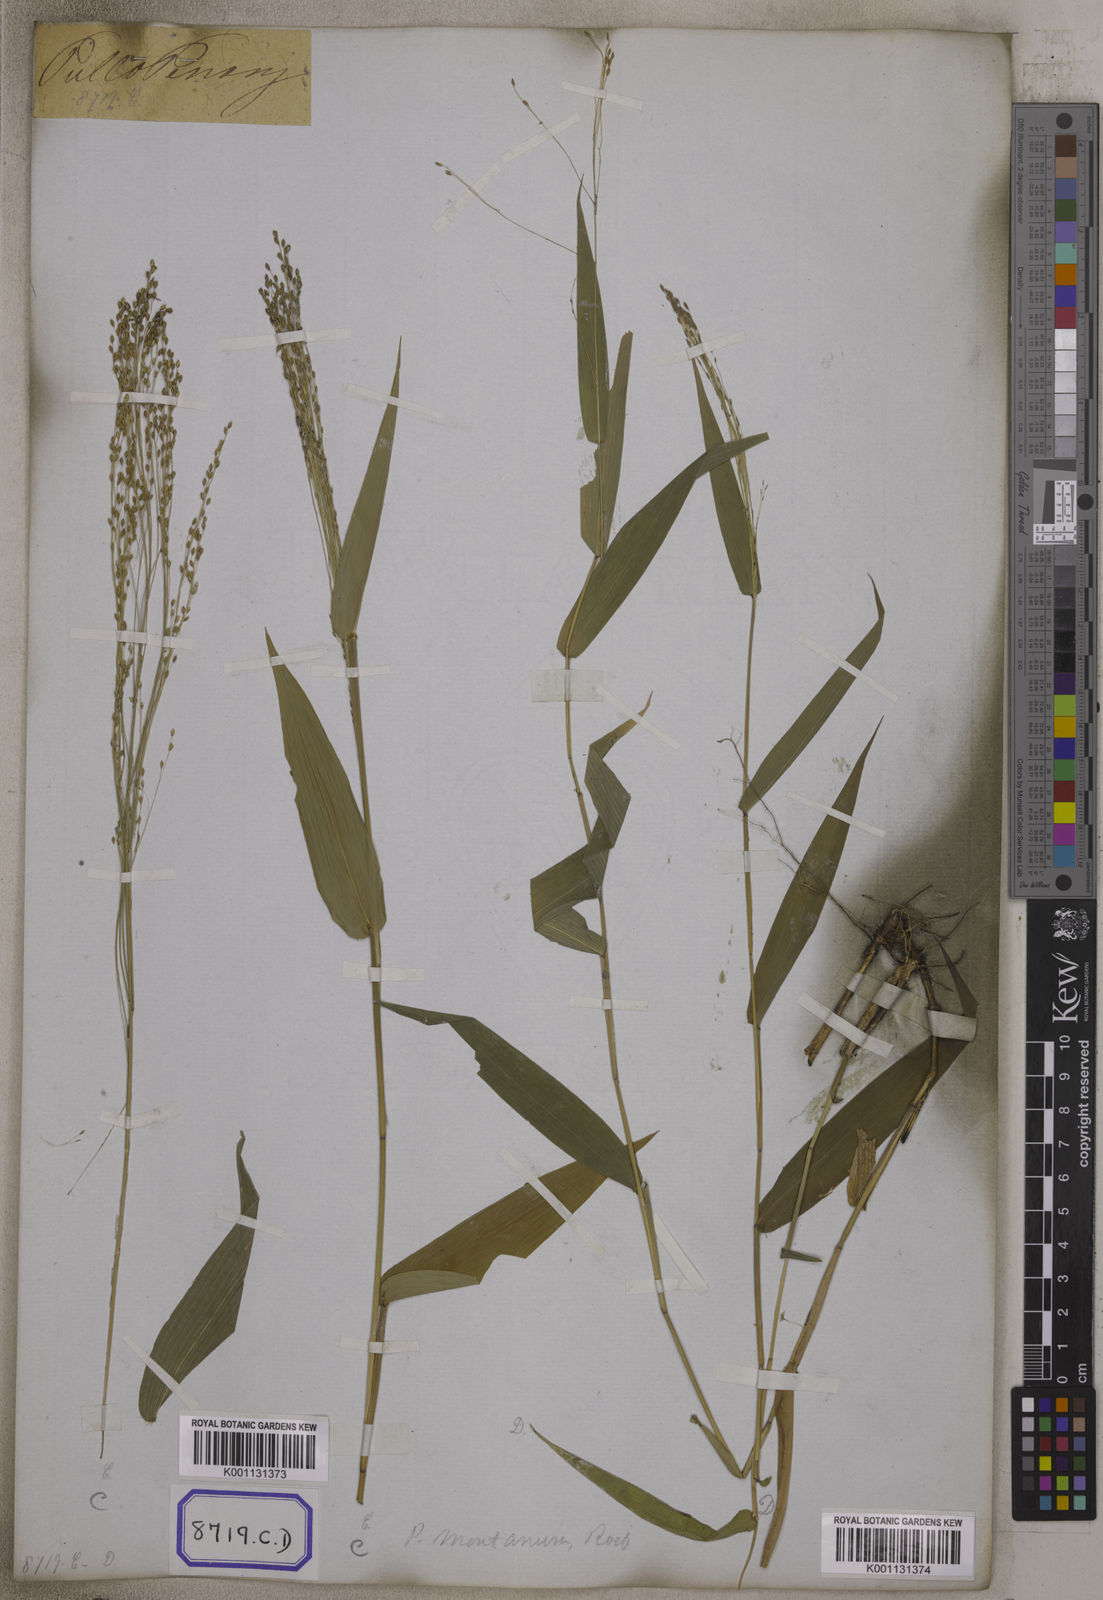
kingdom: Plantae
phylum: Tracheophyta
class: Liliopsida
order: Poales
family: Poaceae
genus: Panicum
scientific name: Panicum
